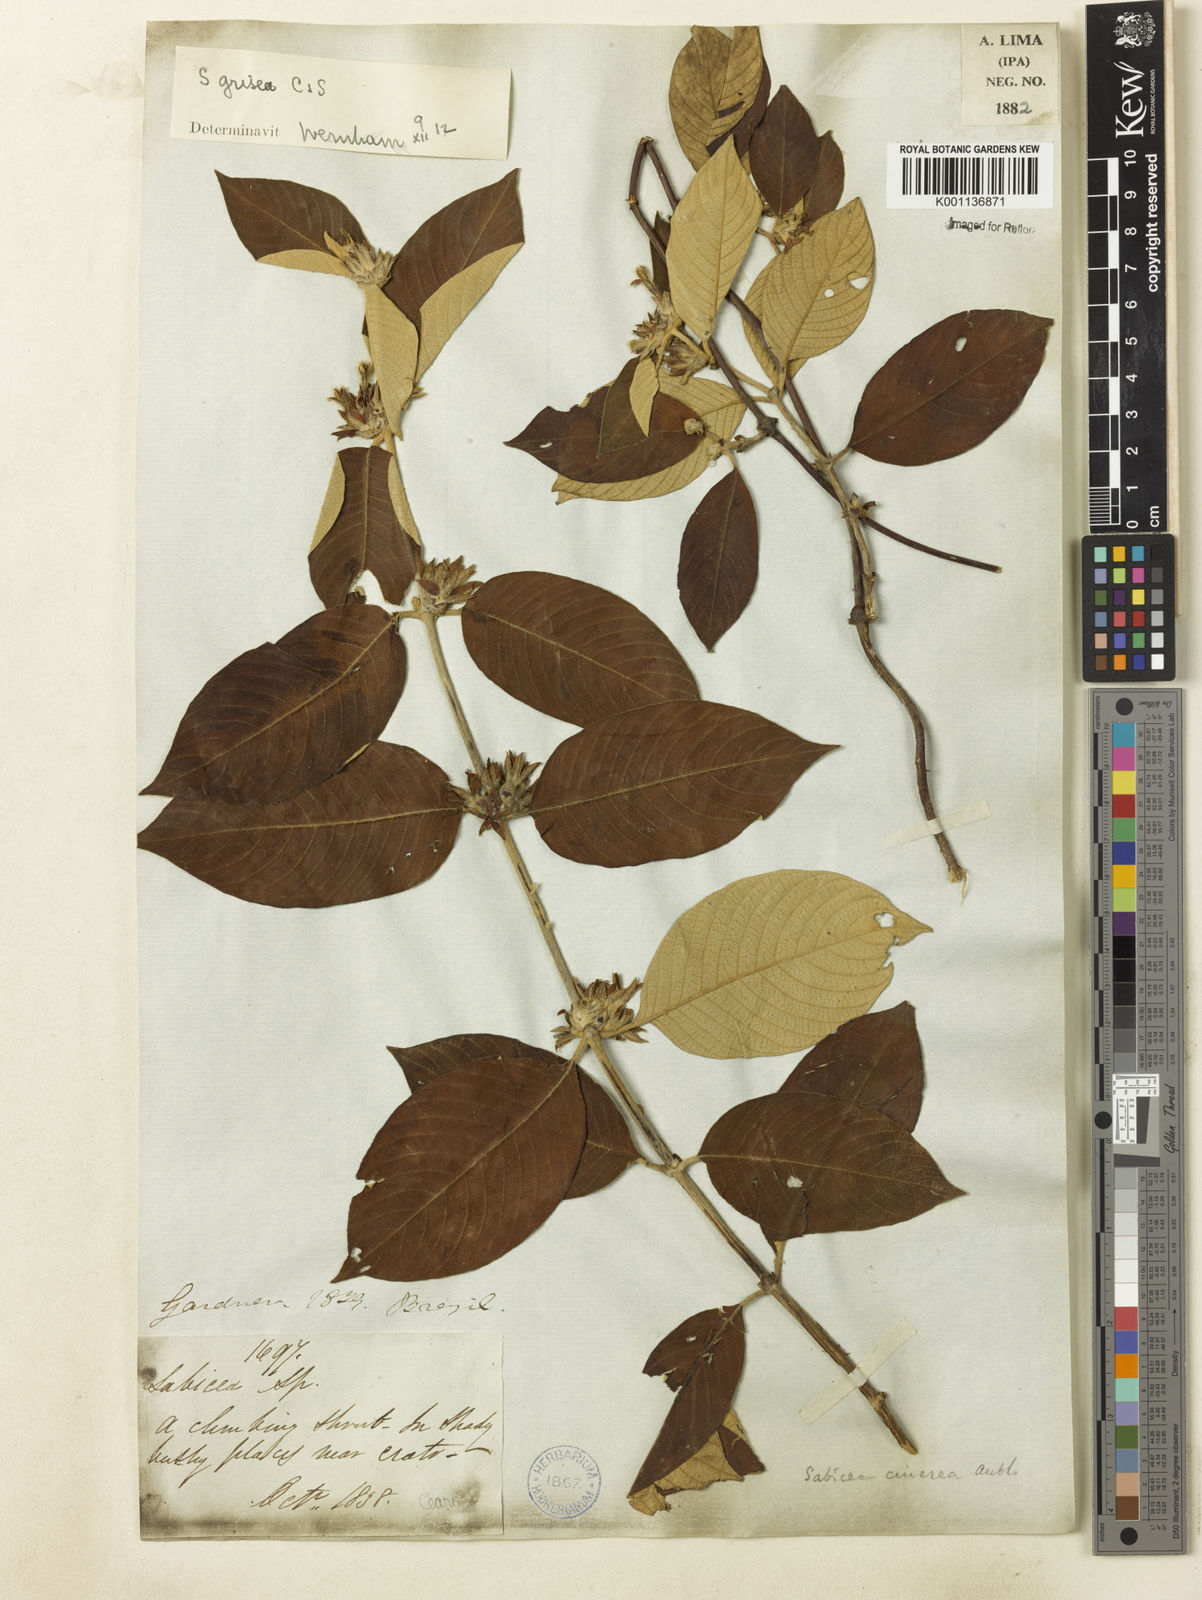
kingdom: Plantae
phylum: Tracheophyta
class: Magnoliopsida
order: Gentianales
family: Rubiaceae
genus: Sabicea
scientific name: Sabicea grisea
